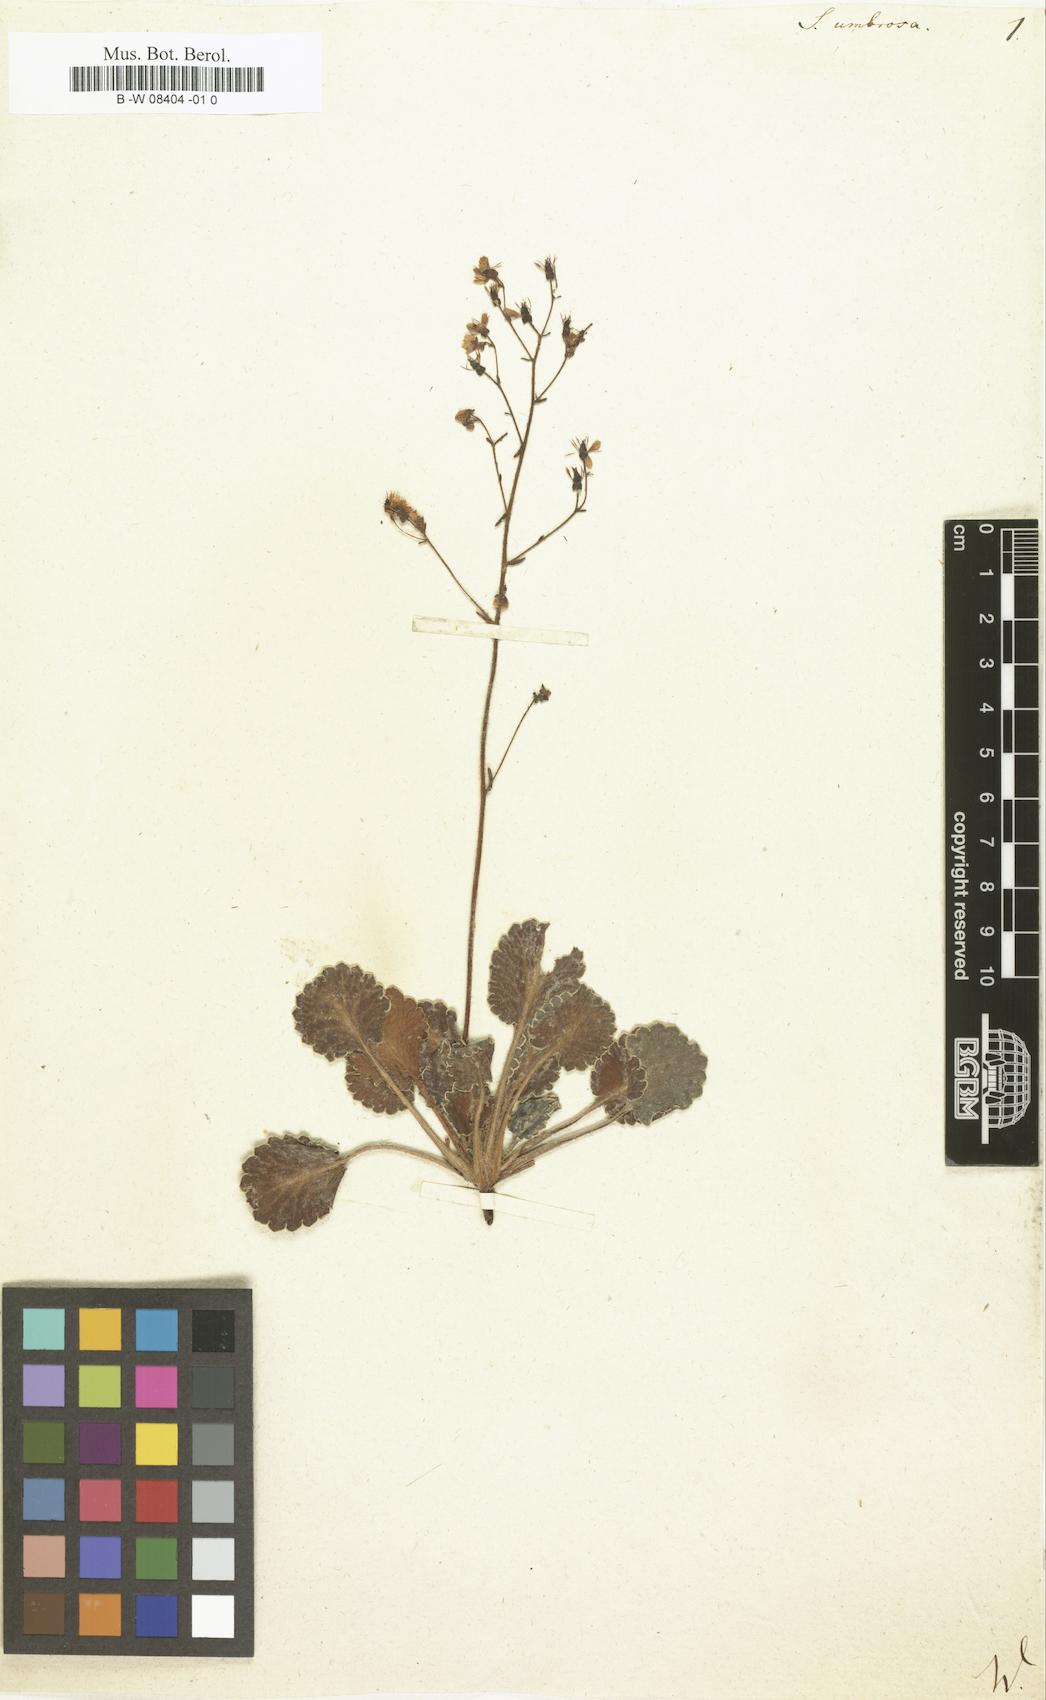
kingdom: Plantae
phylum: Tracheophyta
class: Magnoliopsida
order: Saxifragales
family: Saxifragaceae
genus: Saxifraga
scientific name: Saxifraga umbrosa
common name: Pyrenean saxifrage
